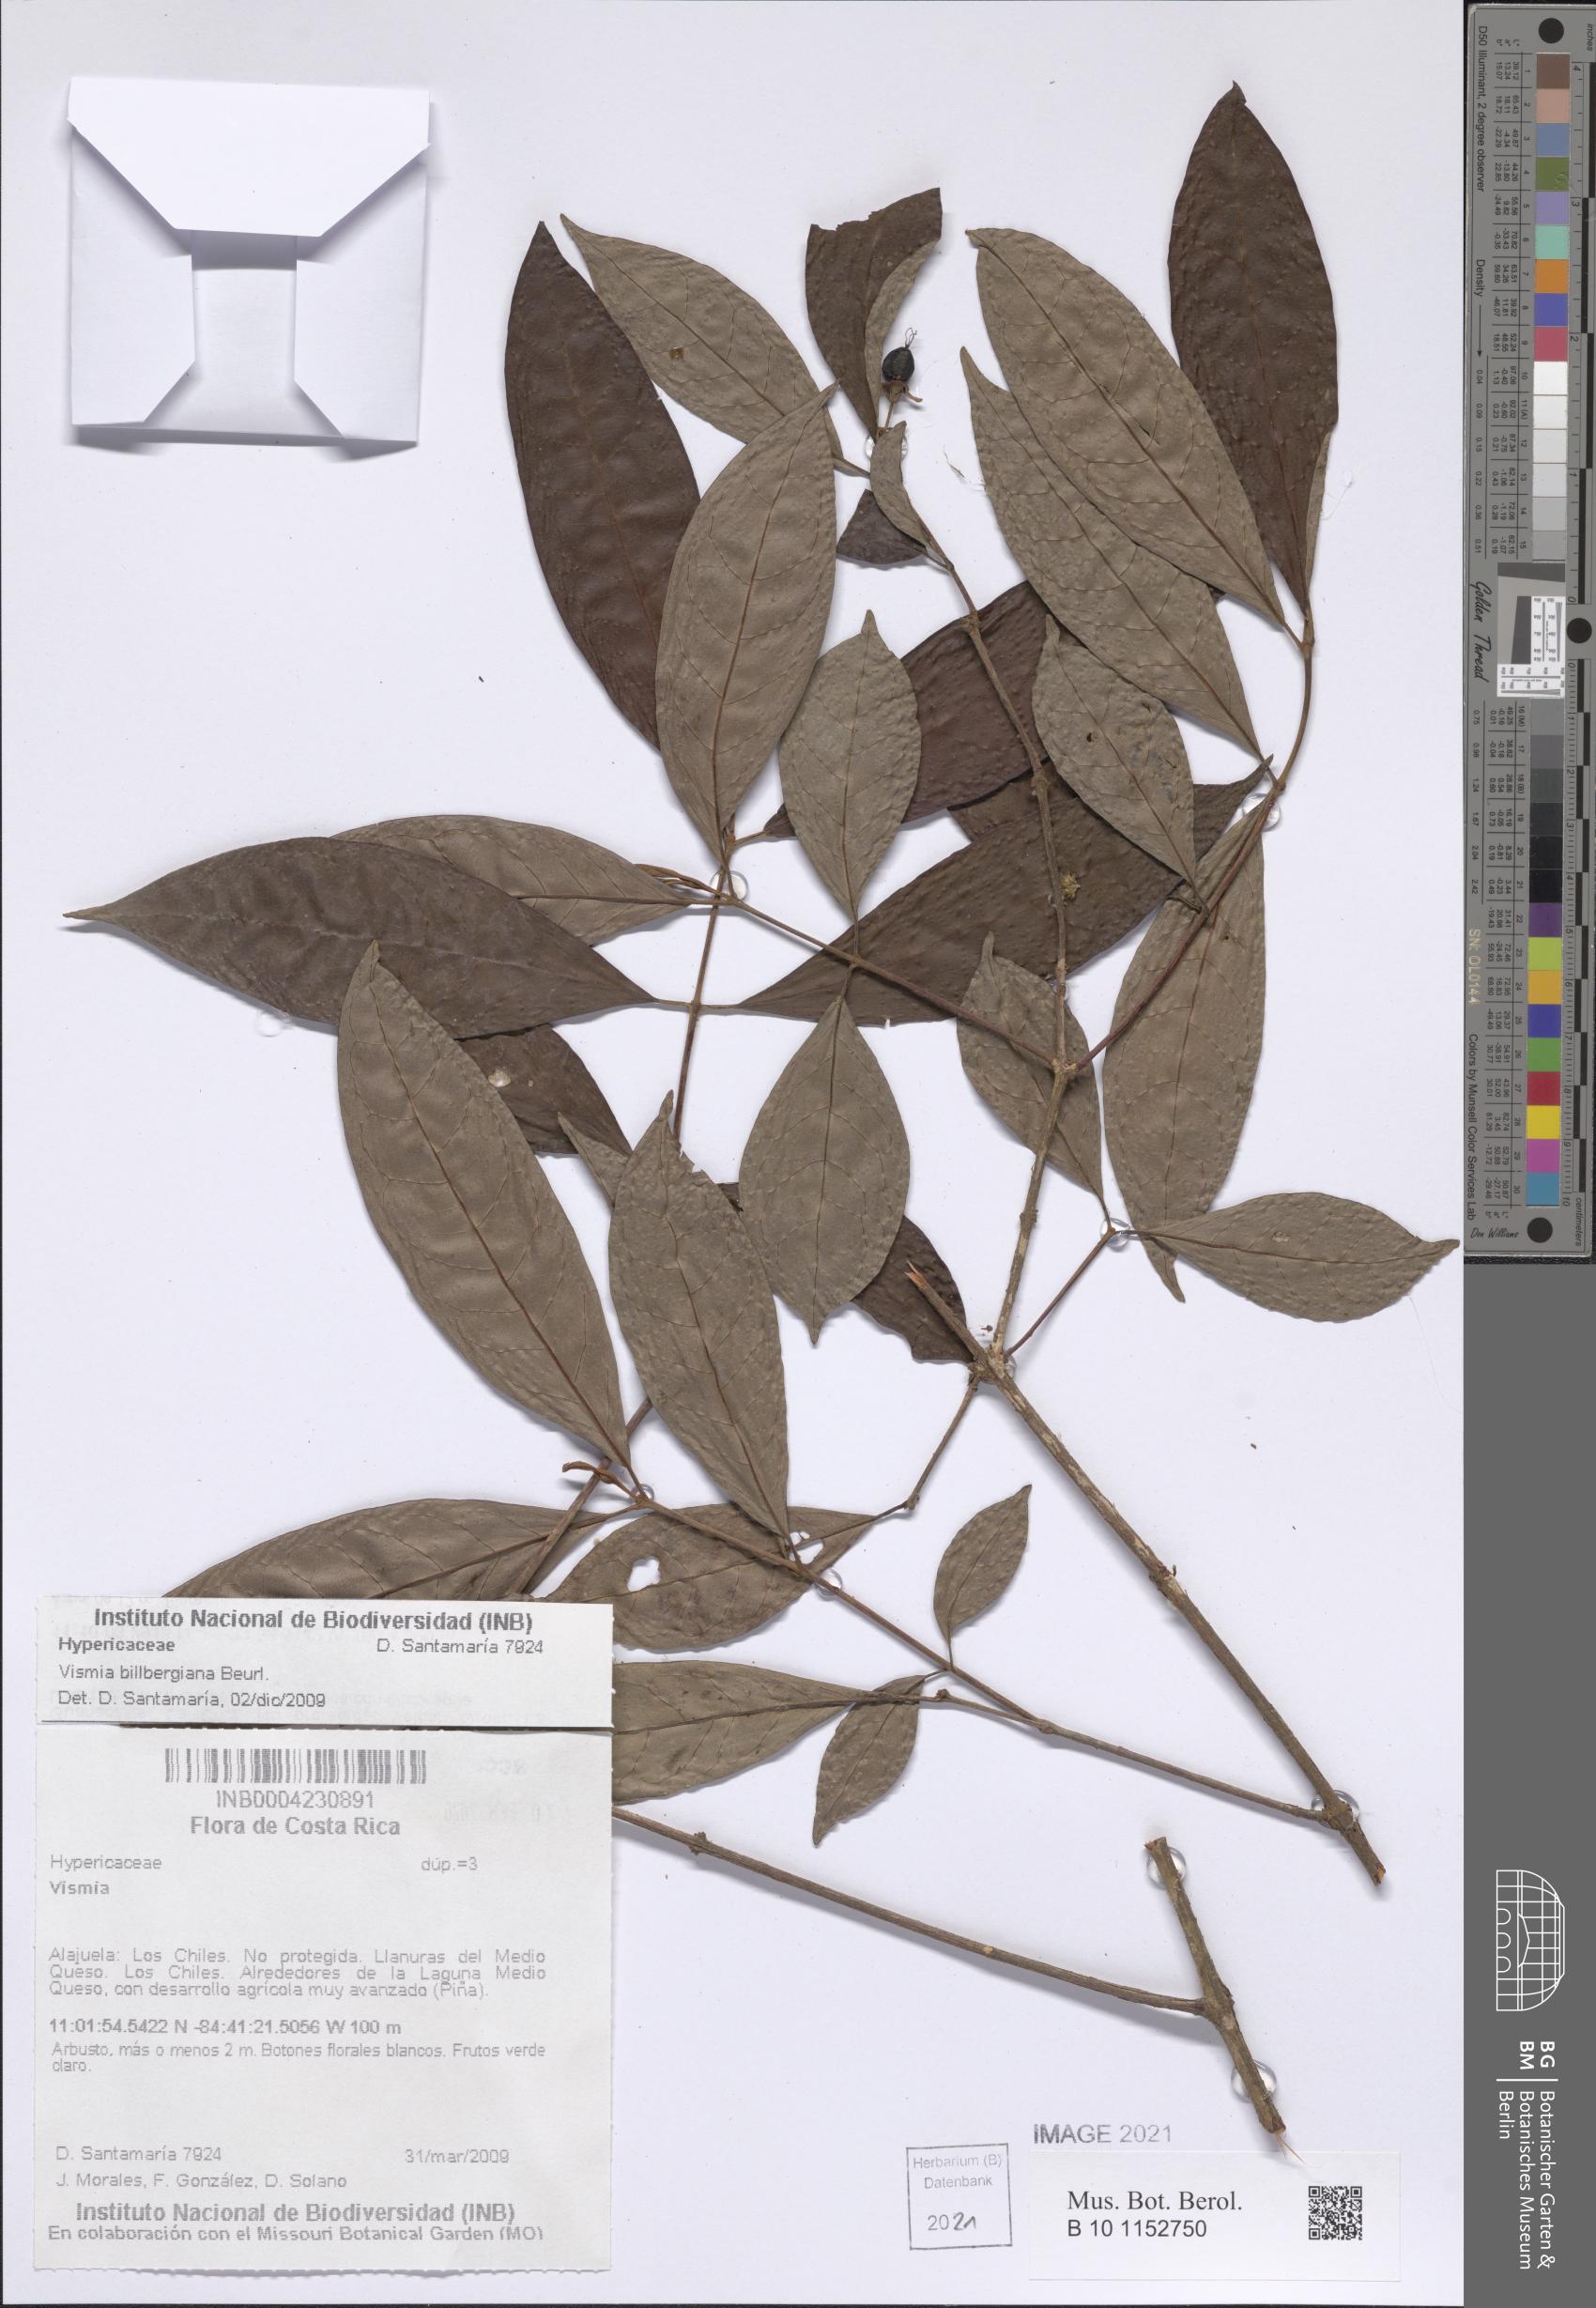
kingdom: Plantae
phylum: Tracheophyta
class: Magnoliopsida
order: Malpighiales
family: Hypericaceae
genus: Vismia
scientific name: Vismia billbergiana
